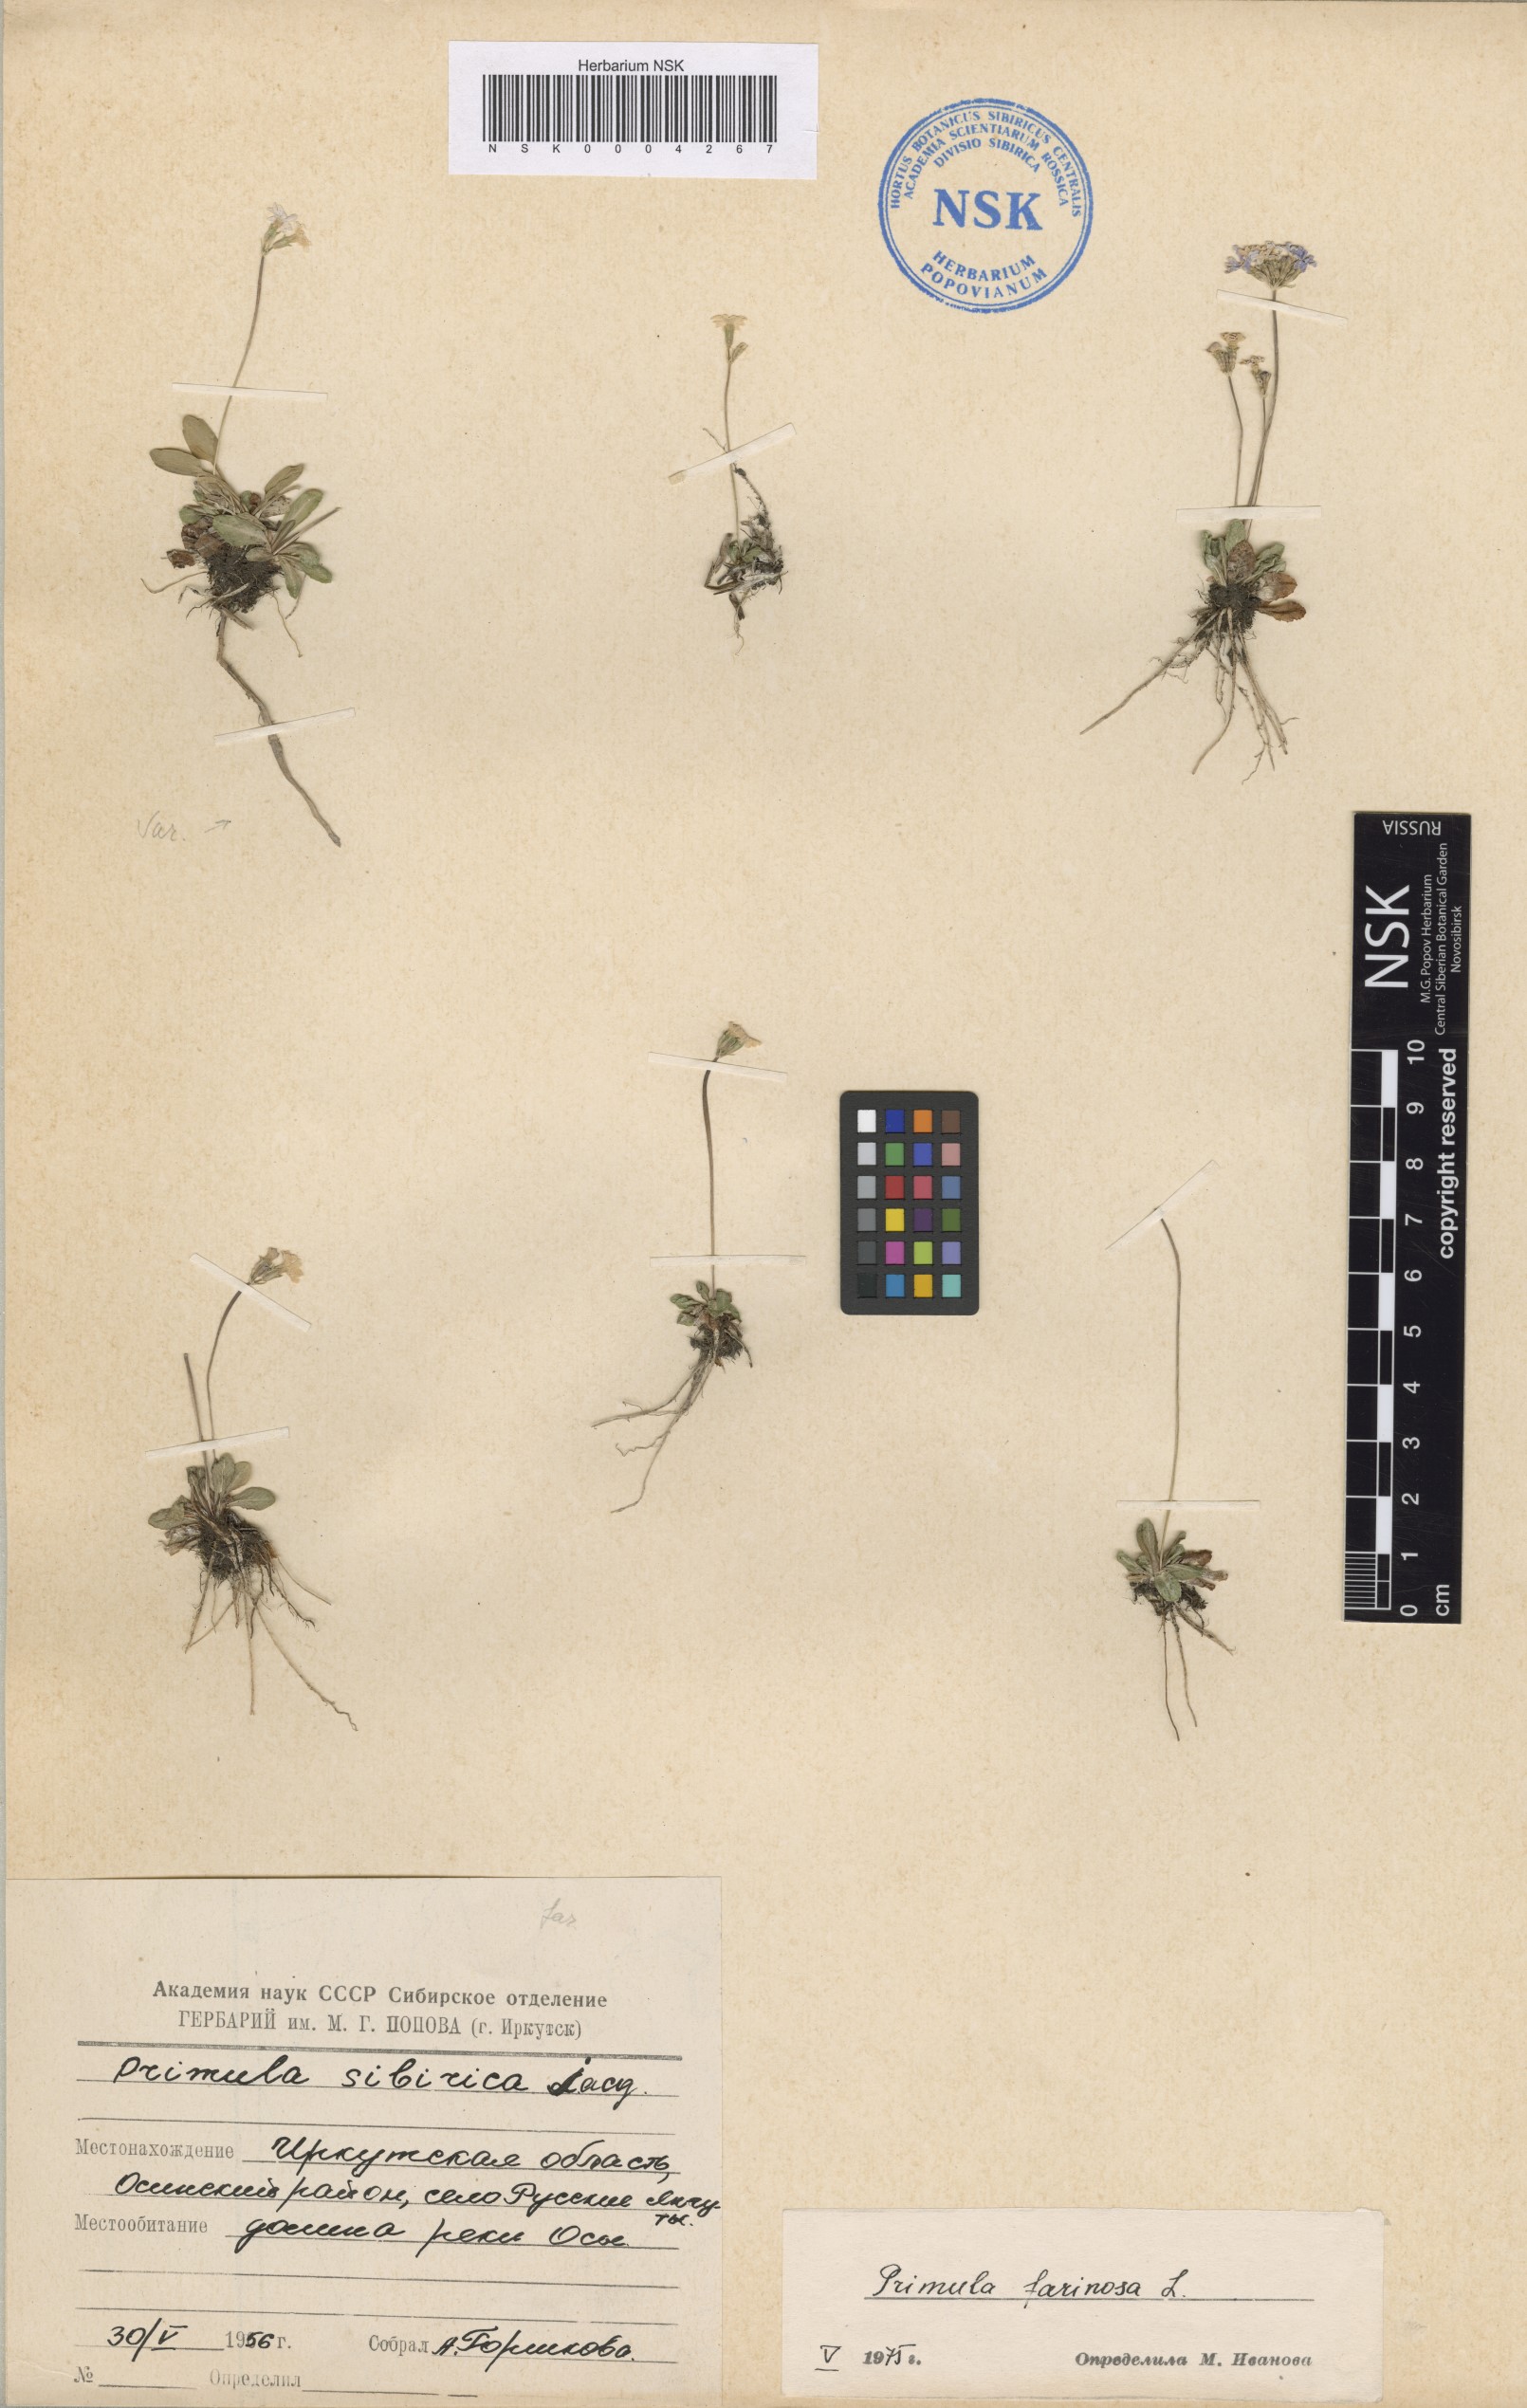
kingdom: Plantae
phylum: Tracheophyta
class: Magnoliopsida
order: Ericales
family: Primulaceae
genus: Primula
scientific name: Primula farinosa
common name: Bird's-eye primrose
